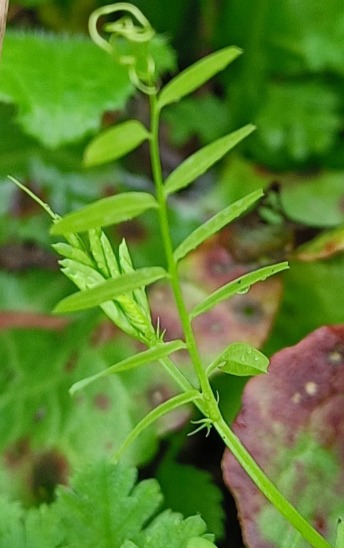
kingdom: Plantae
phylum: Tracheophyta
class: Magnoliopsida
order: Fabales
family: Fabaceae
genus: Vicia
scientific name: Vicia
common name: Vikkeslægten
